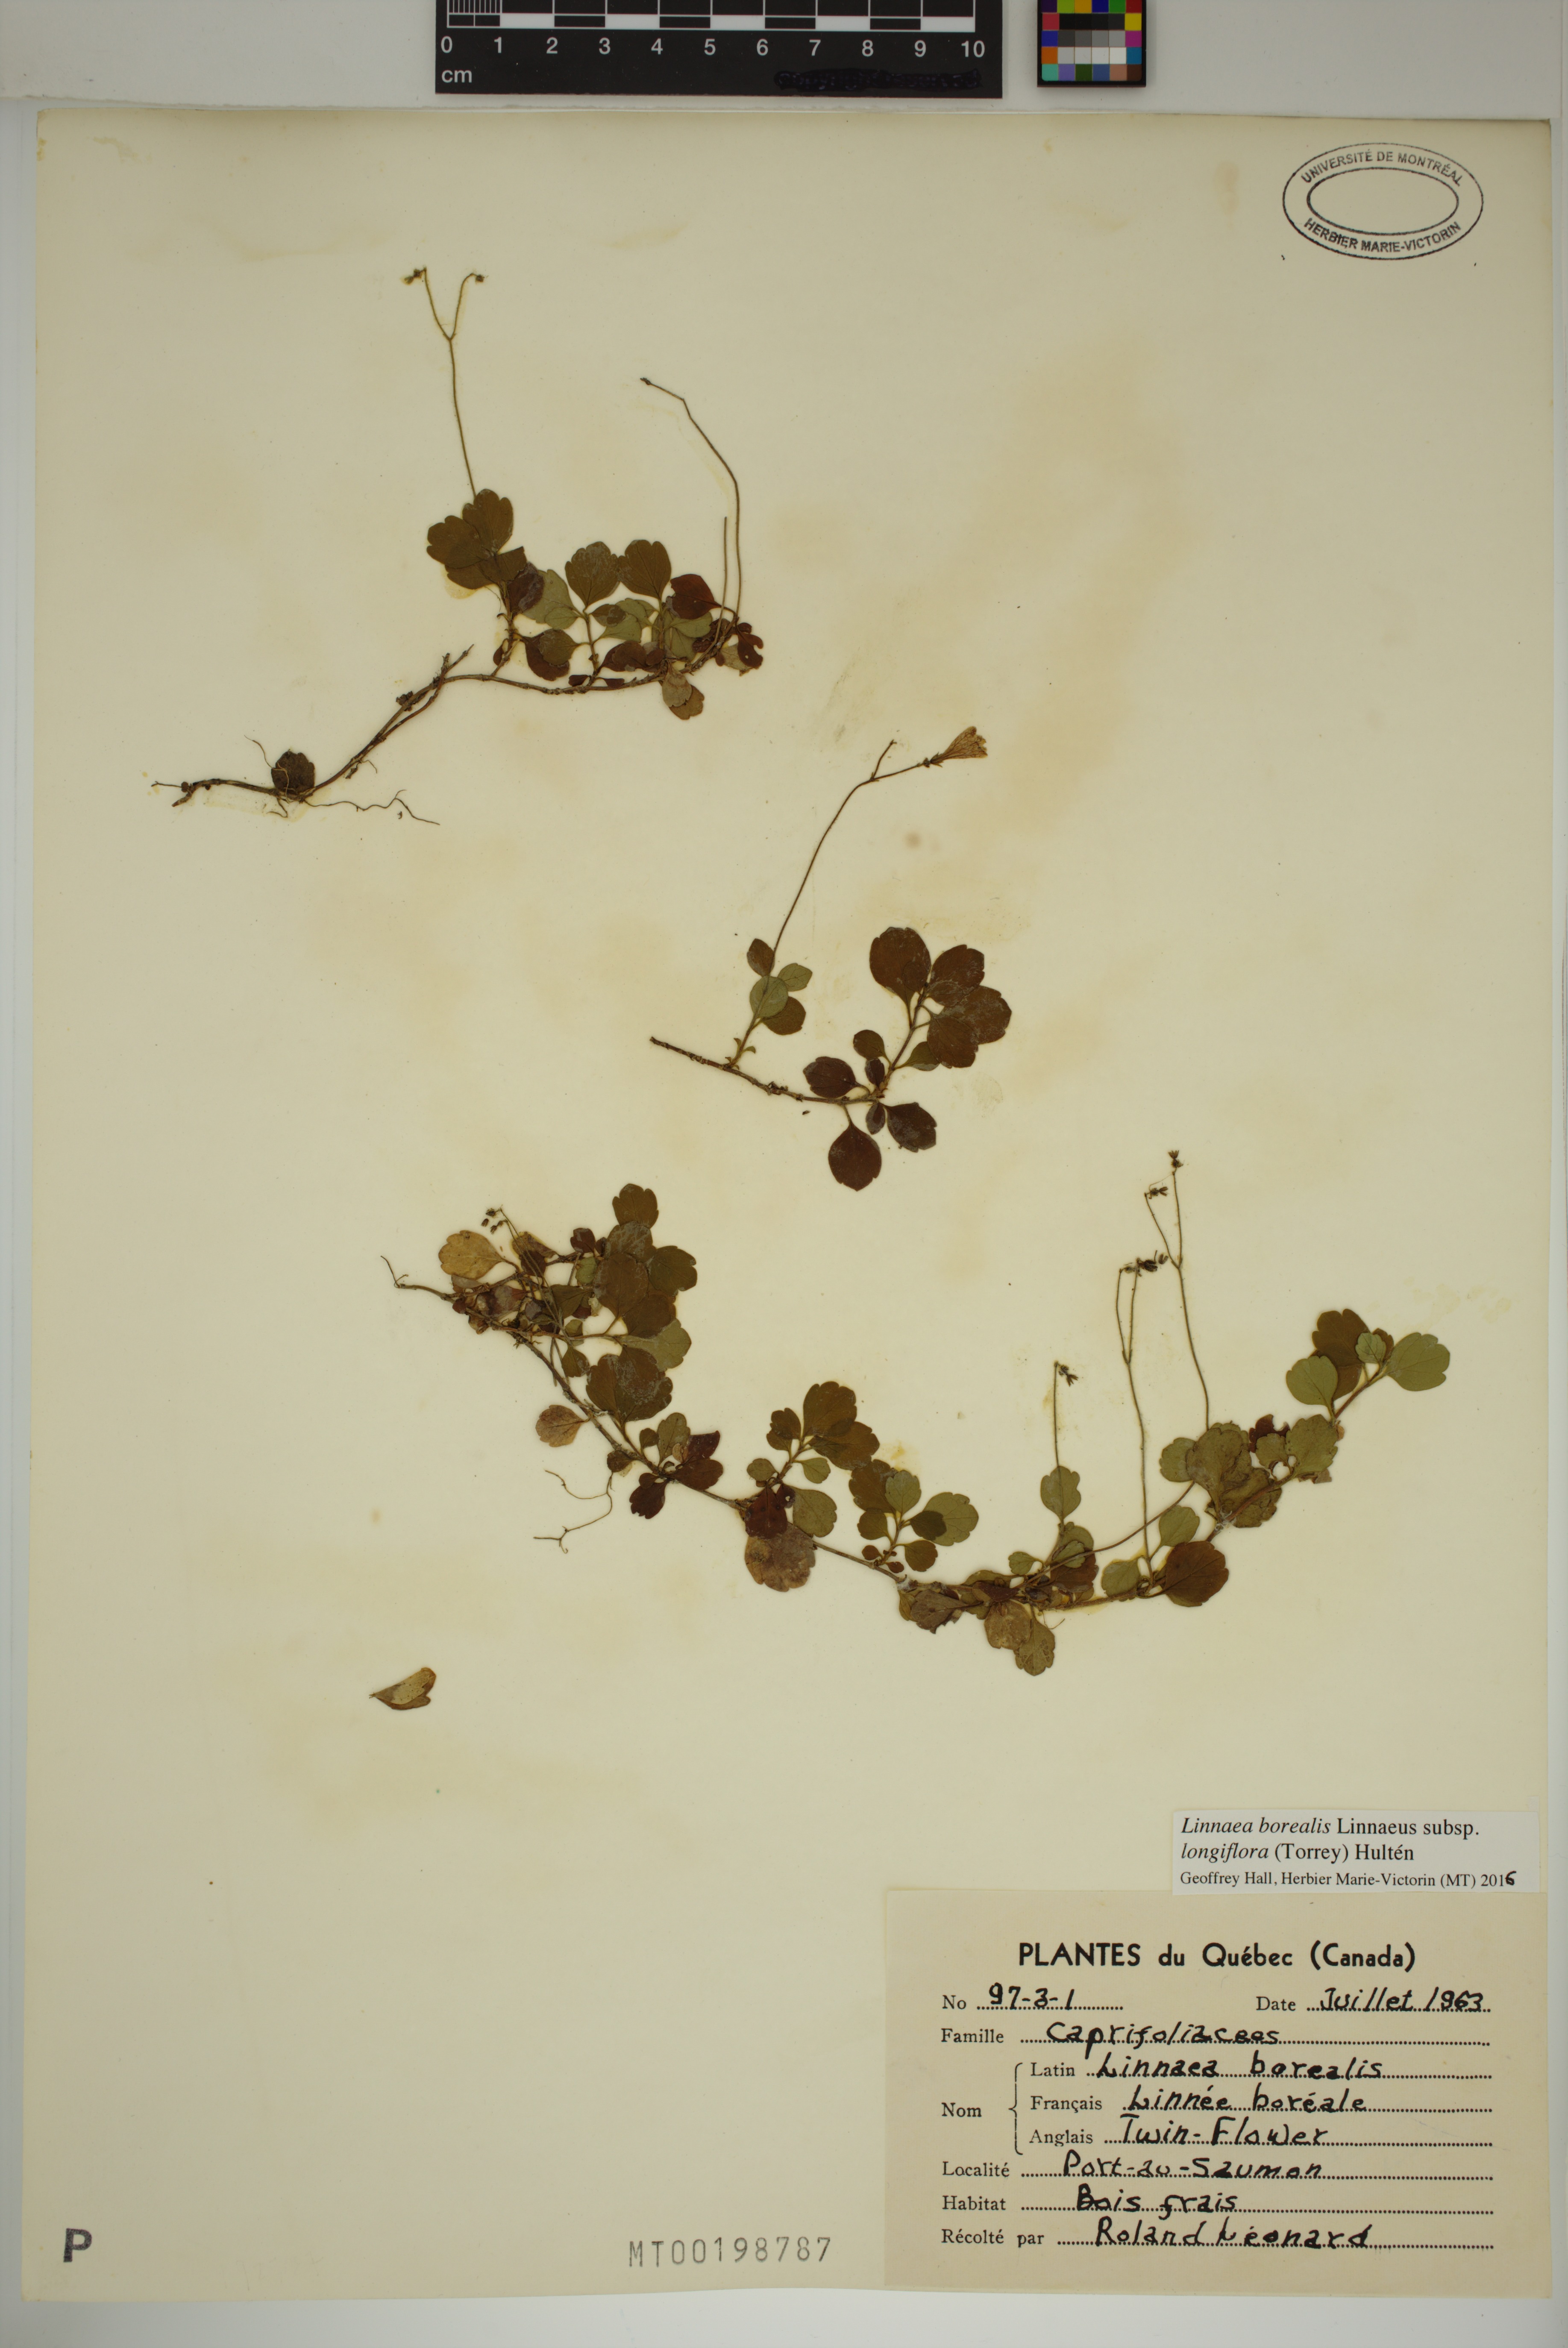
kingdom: Plantae
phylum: Tracheophyta
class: Magnoliopsida
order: Dipsacales
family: Caprifoliaceae
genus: Linnaea
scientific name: Linnaea borealis
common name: Twinflower
